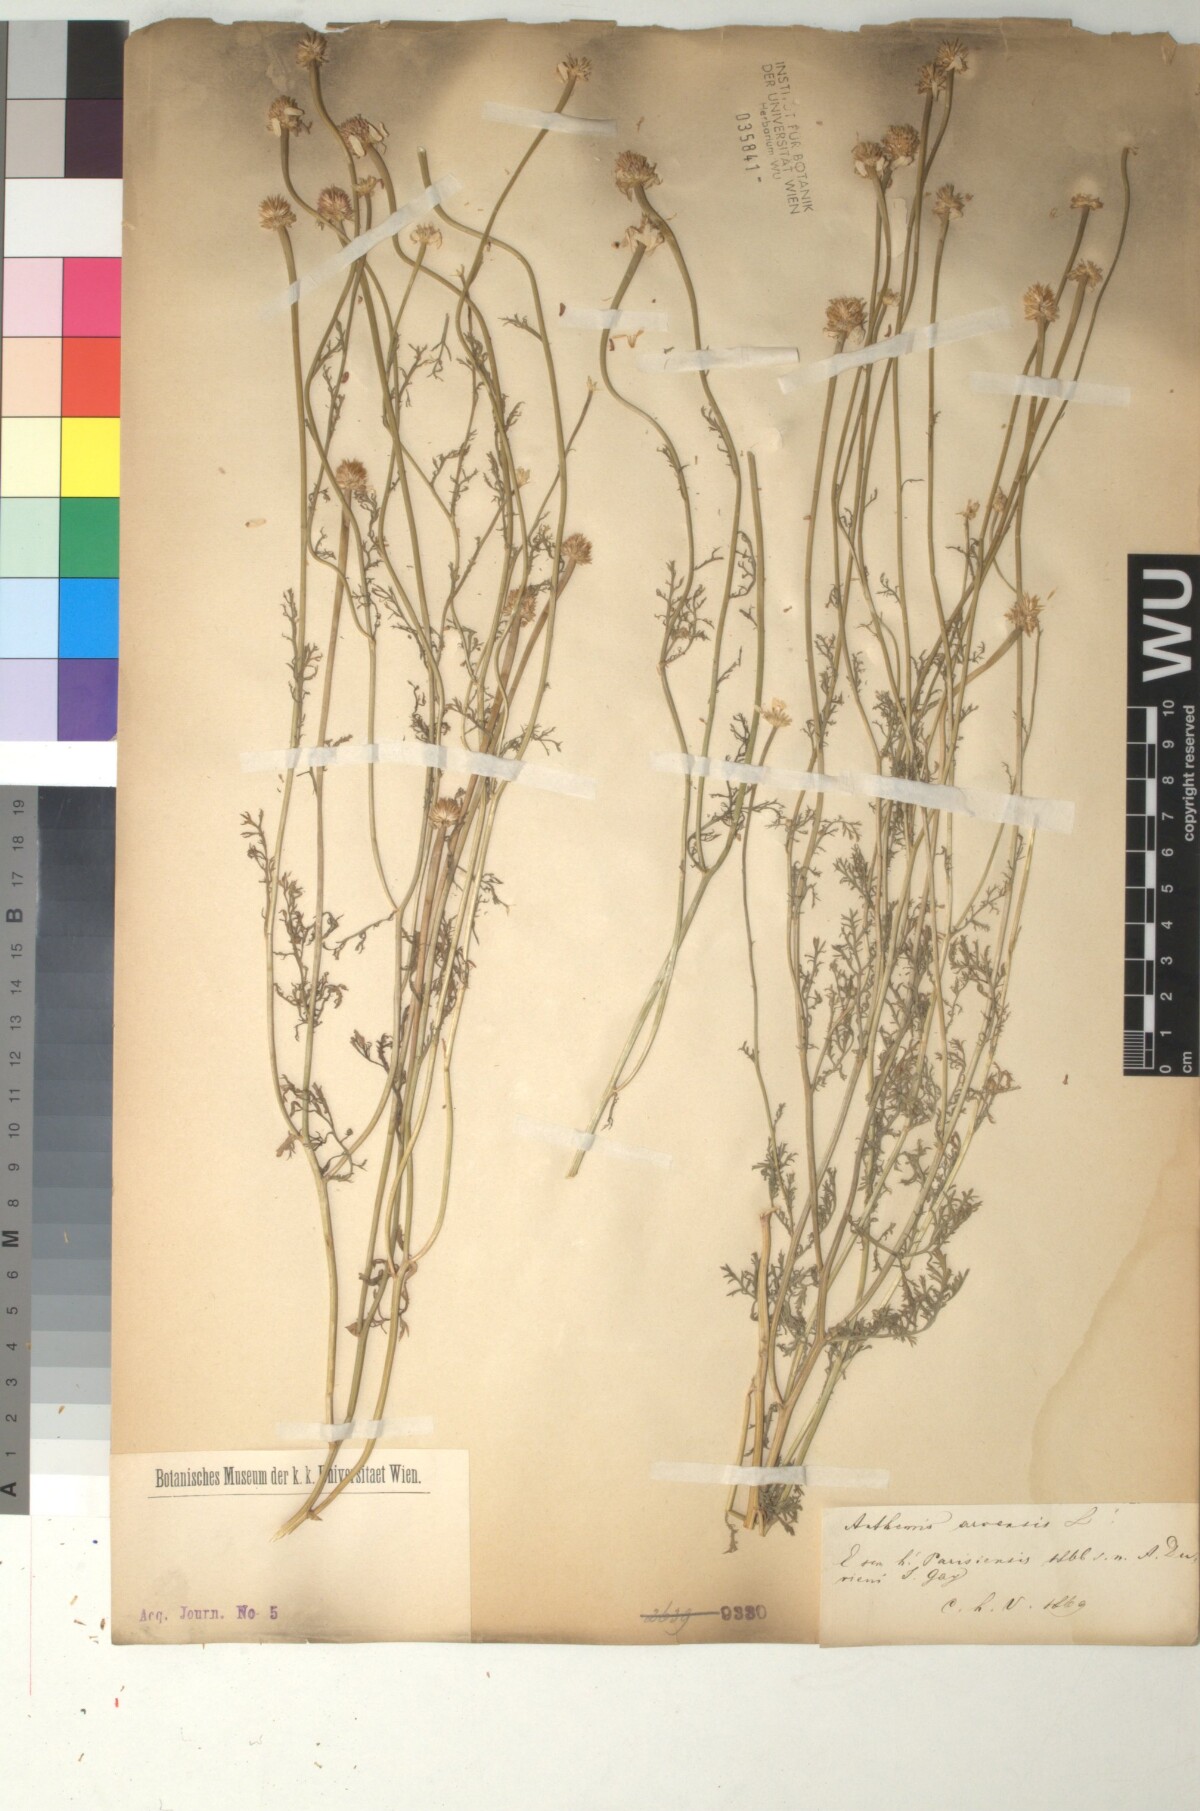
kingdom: Plantae
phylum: Tracheophyta
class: Magnoliopsida
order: Asterales
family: Asteraceae
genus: Anthemis
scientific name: Anthemis arvensis
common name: Corn chamomile
